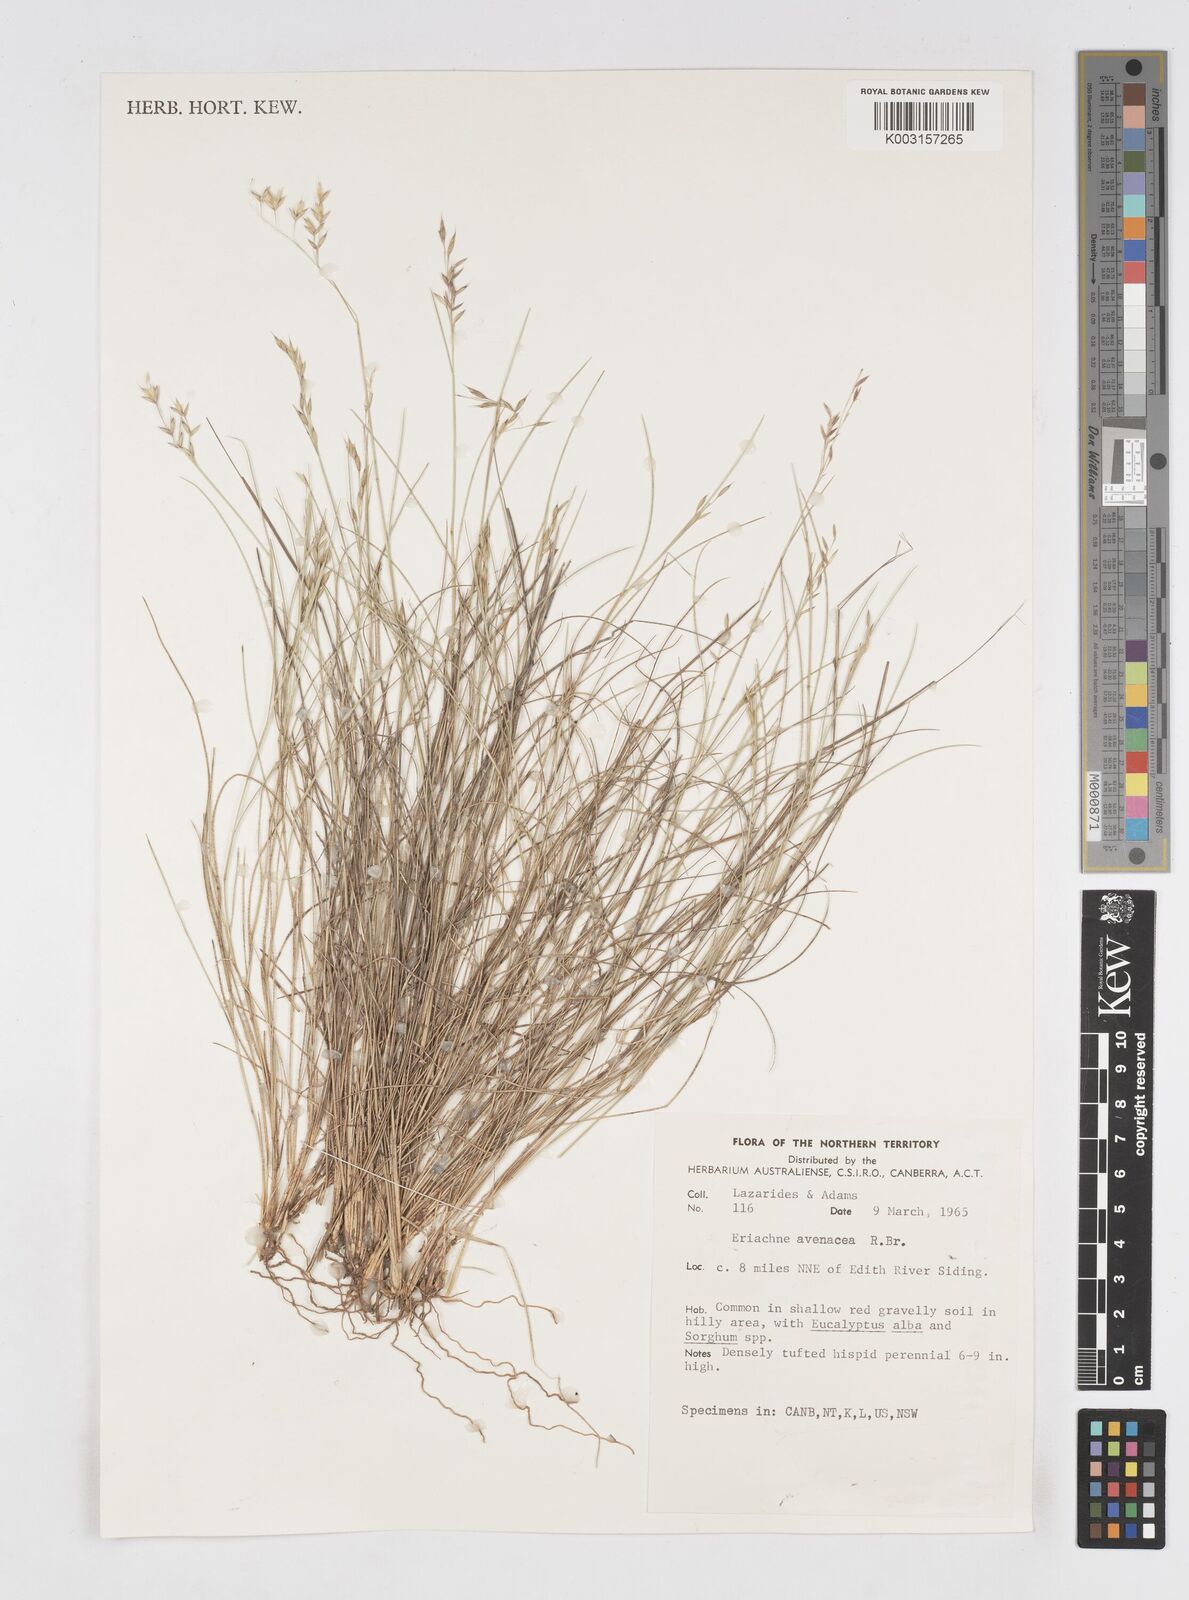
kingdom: Plantae
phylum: Tracheophyta
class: Liliopsida
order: Poales
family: Poaceae
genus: Eriachne
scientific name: Eriachne avenacea
